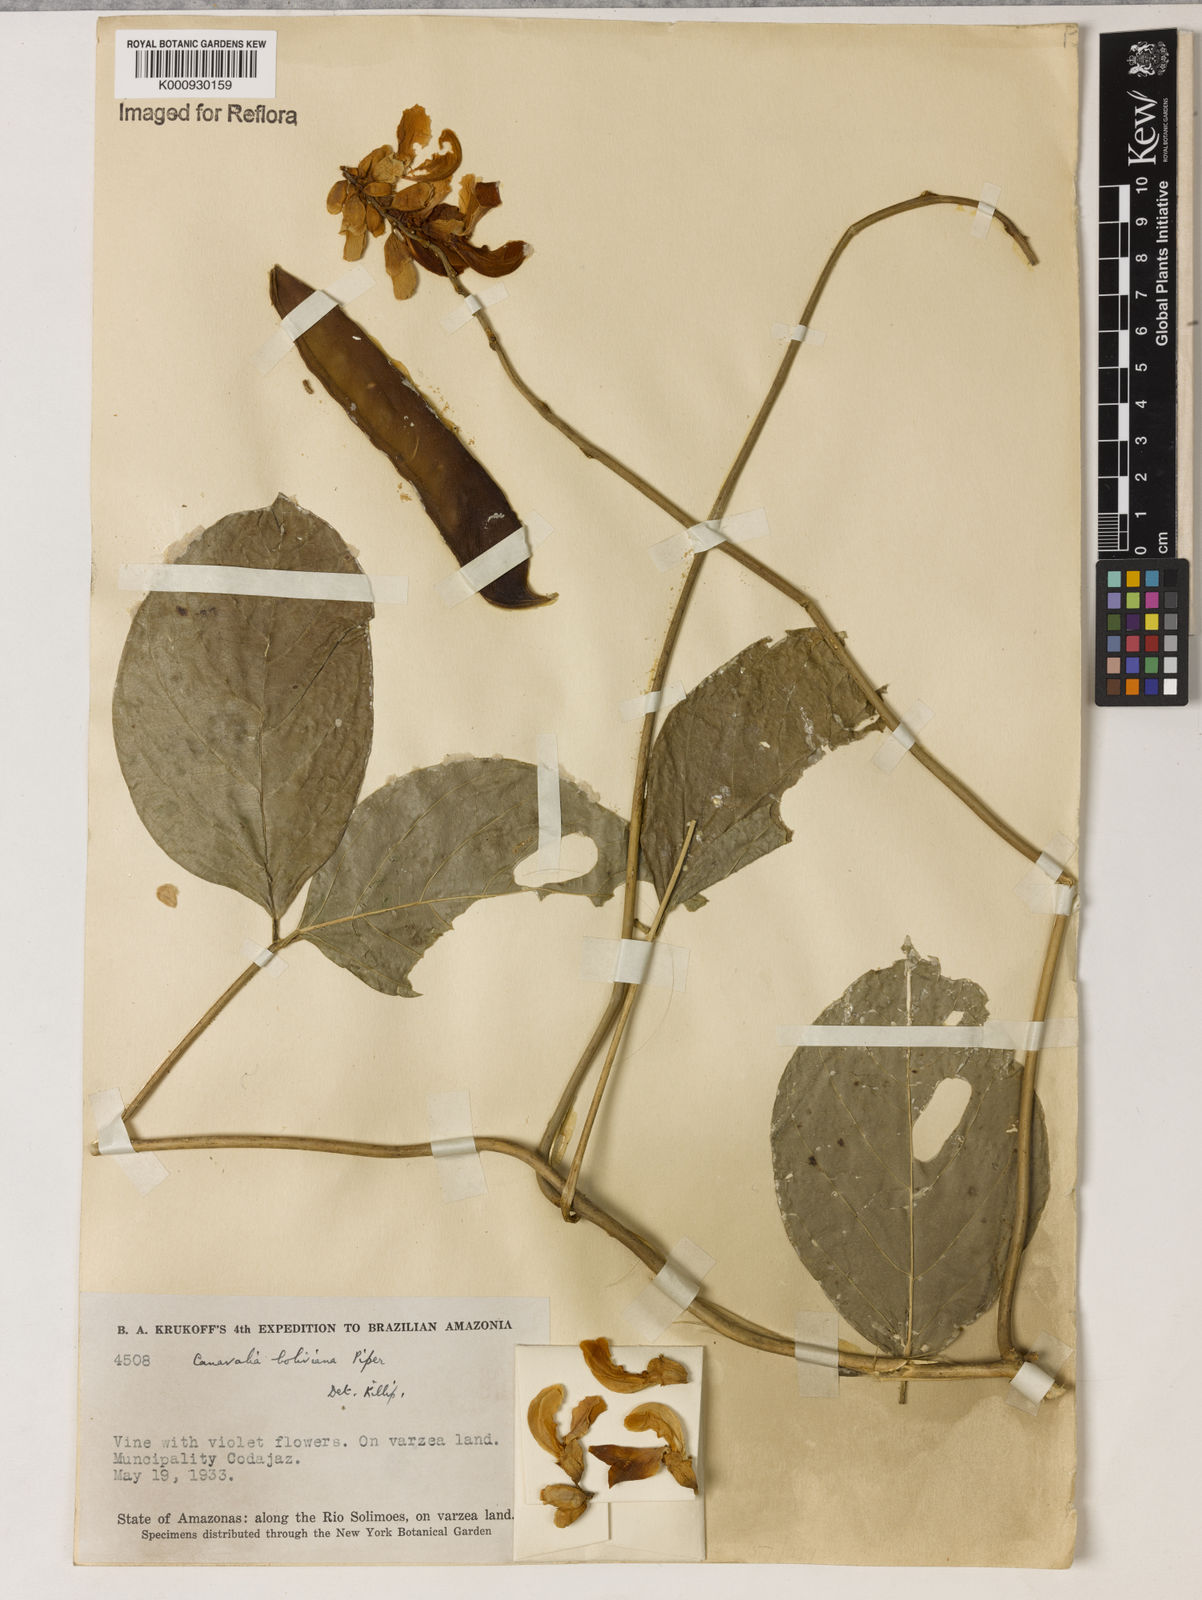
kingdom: Plantae
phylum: Tracheophyta
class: Magnoliopsida
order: Fabales
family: Fabaceae
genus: Canavalia
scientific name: Canavalia boliviana
